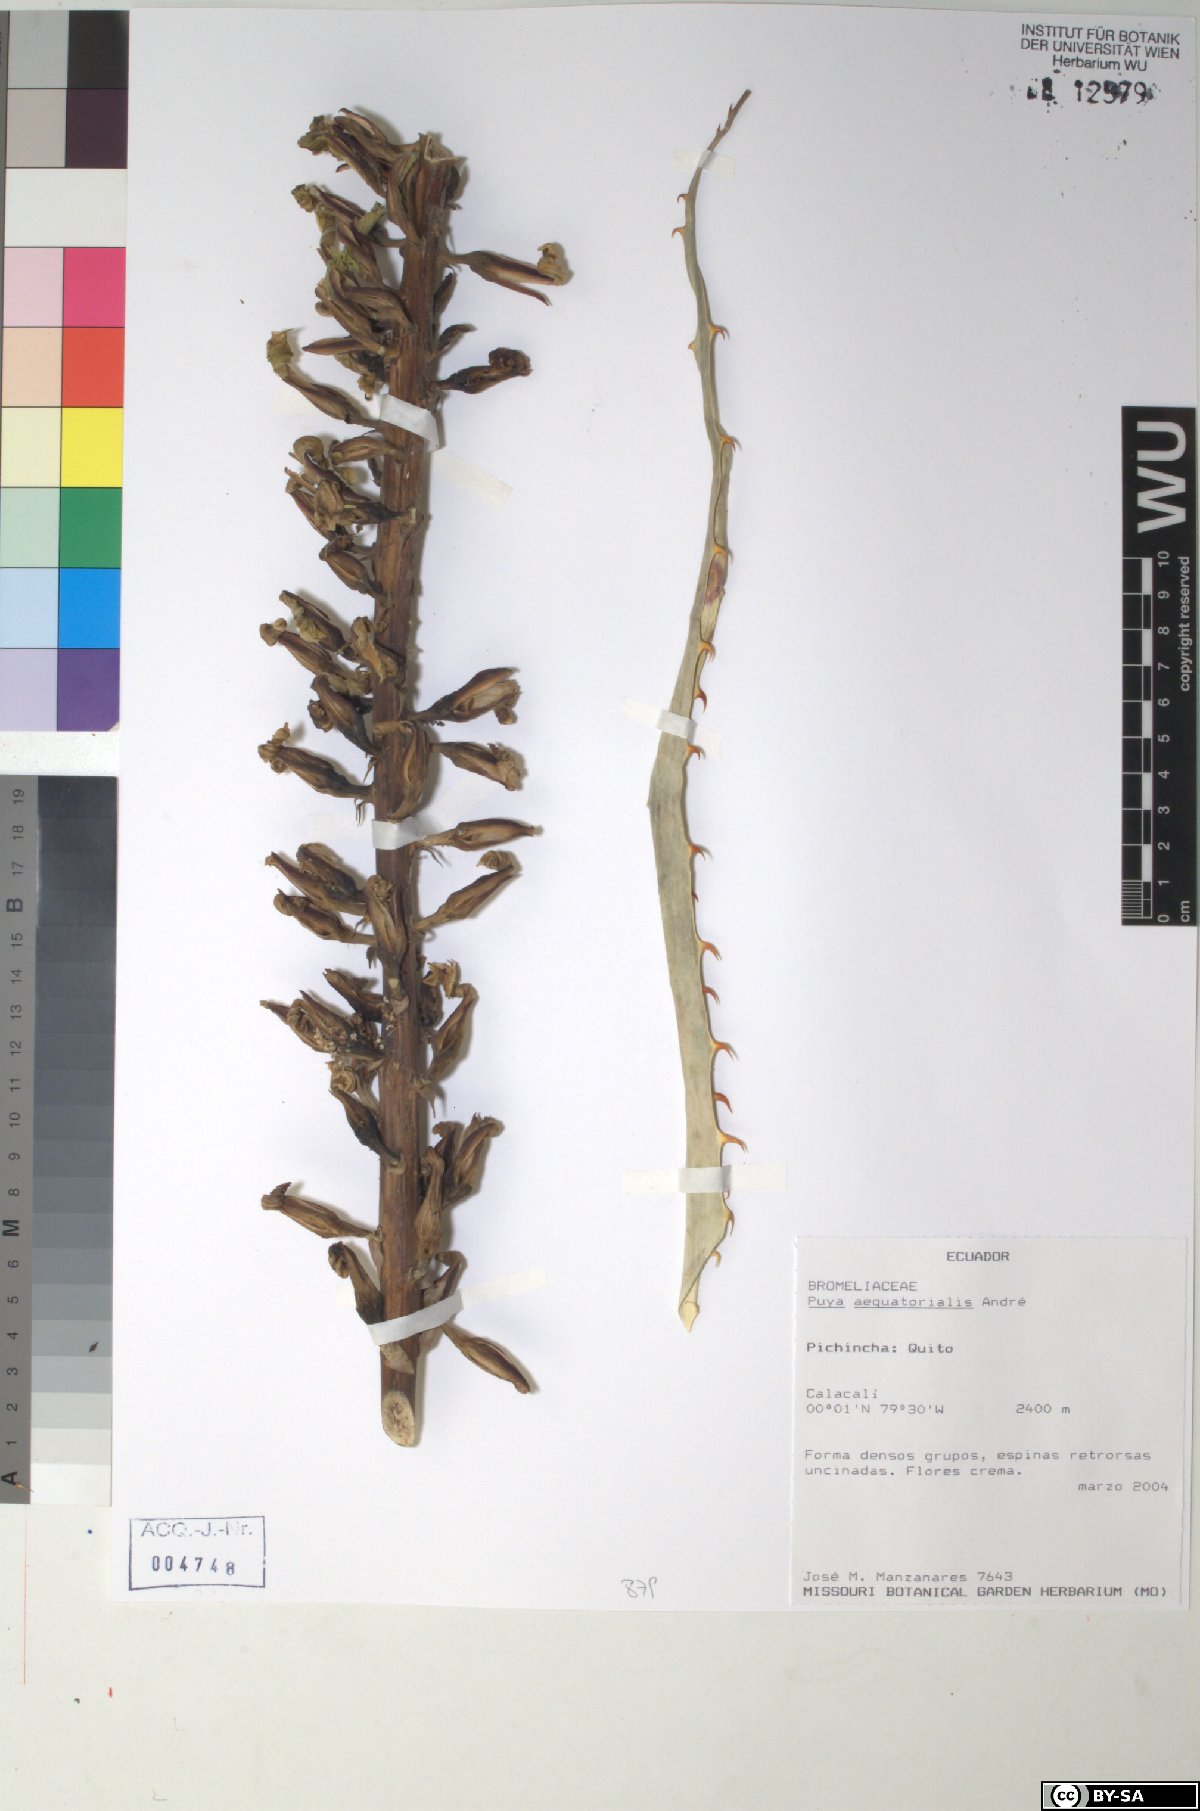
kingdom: Plantae
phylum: Tracheophyta
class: Liliopsida
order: Poales
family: Bromeliaceae
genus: Puya
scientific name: Puya aequatorialis
